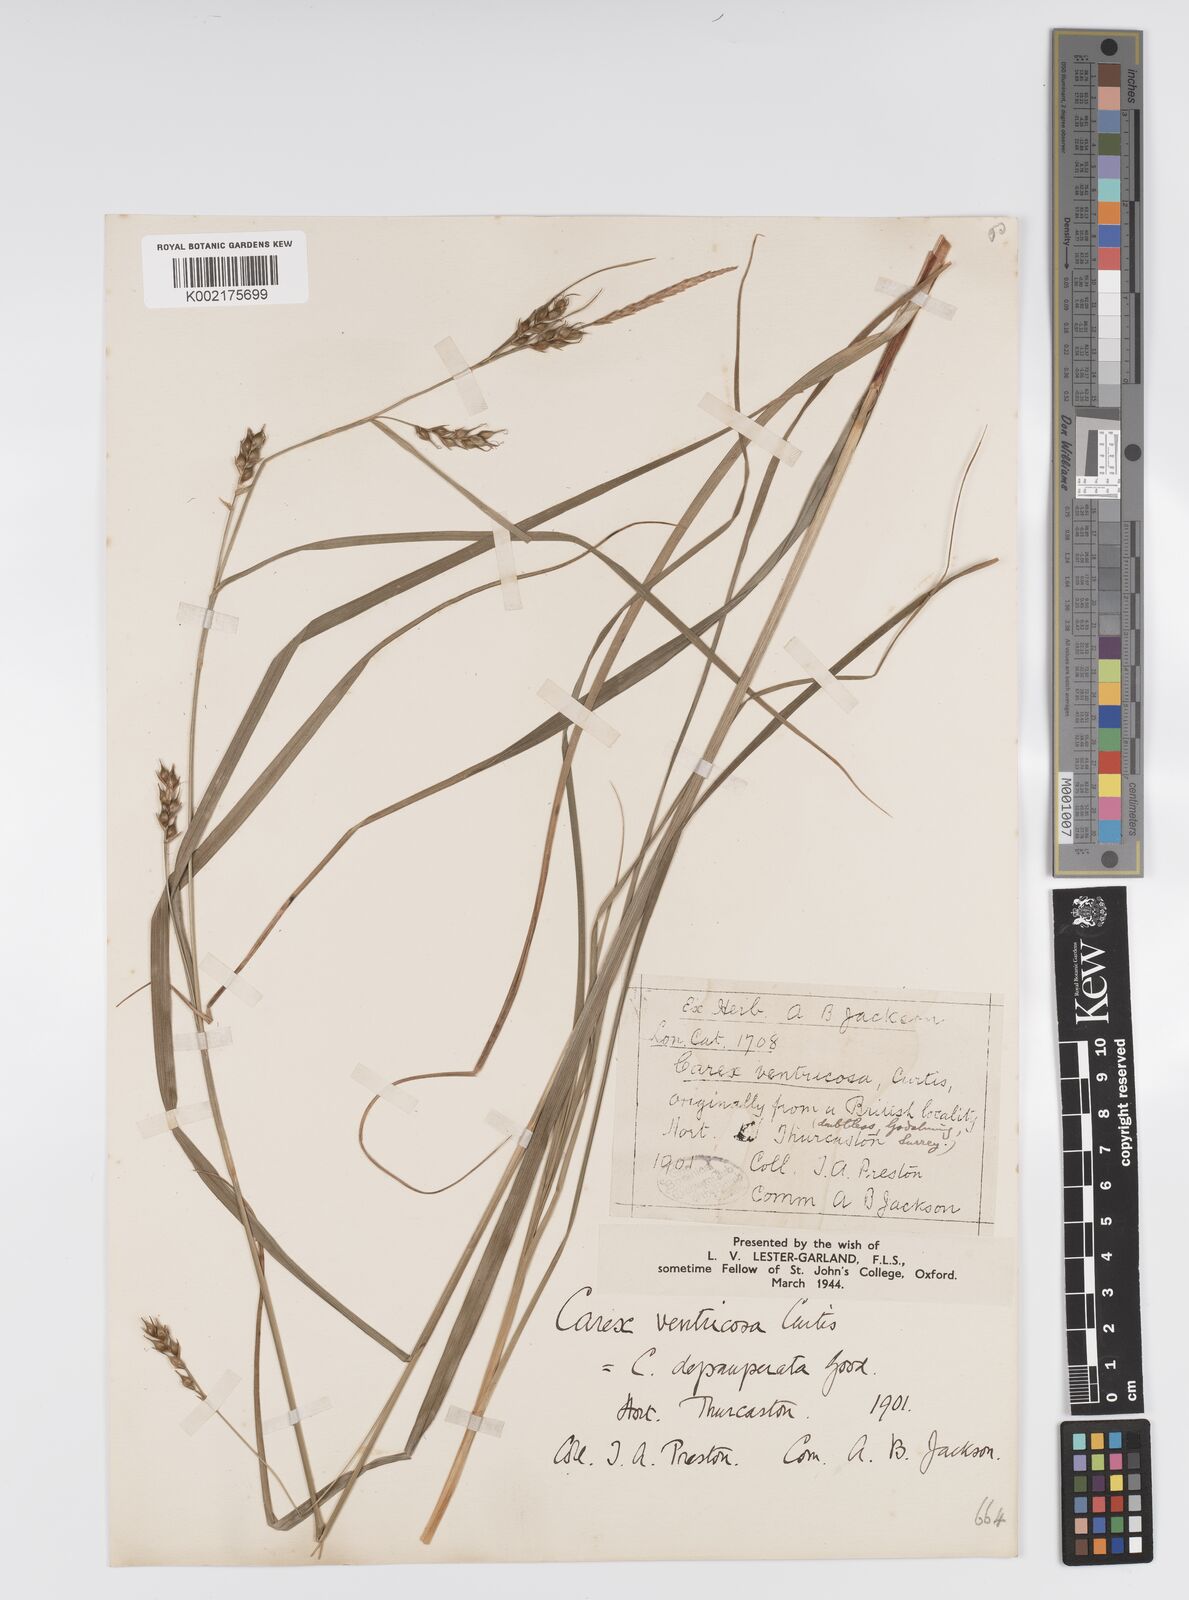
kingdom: Plantae
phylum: Tracheophyta
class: Liliopsida
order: Poales
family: Cyperaceae
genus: Carex
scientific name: Carex depauperata
